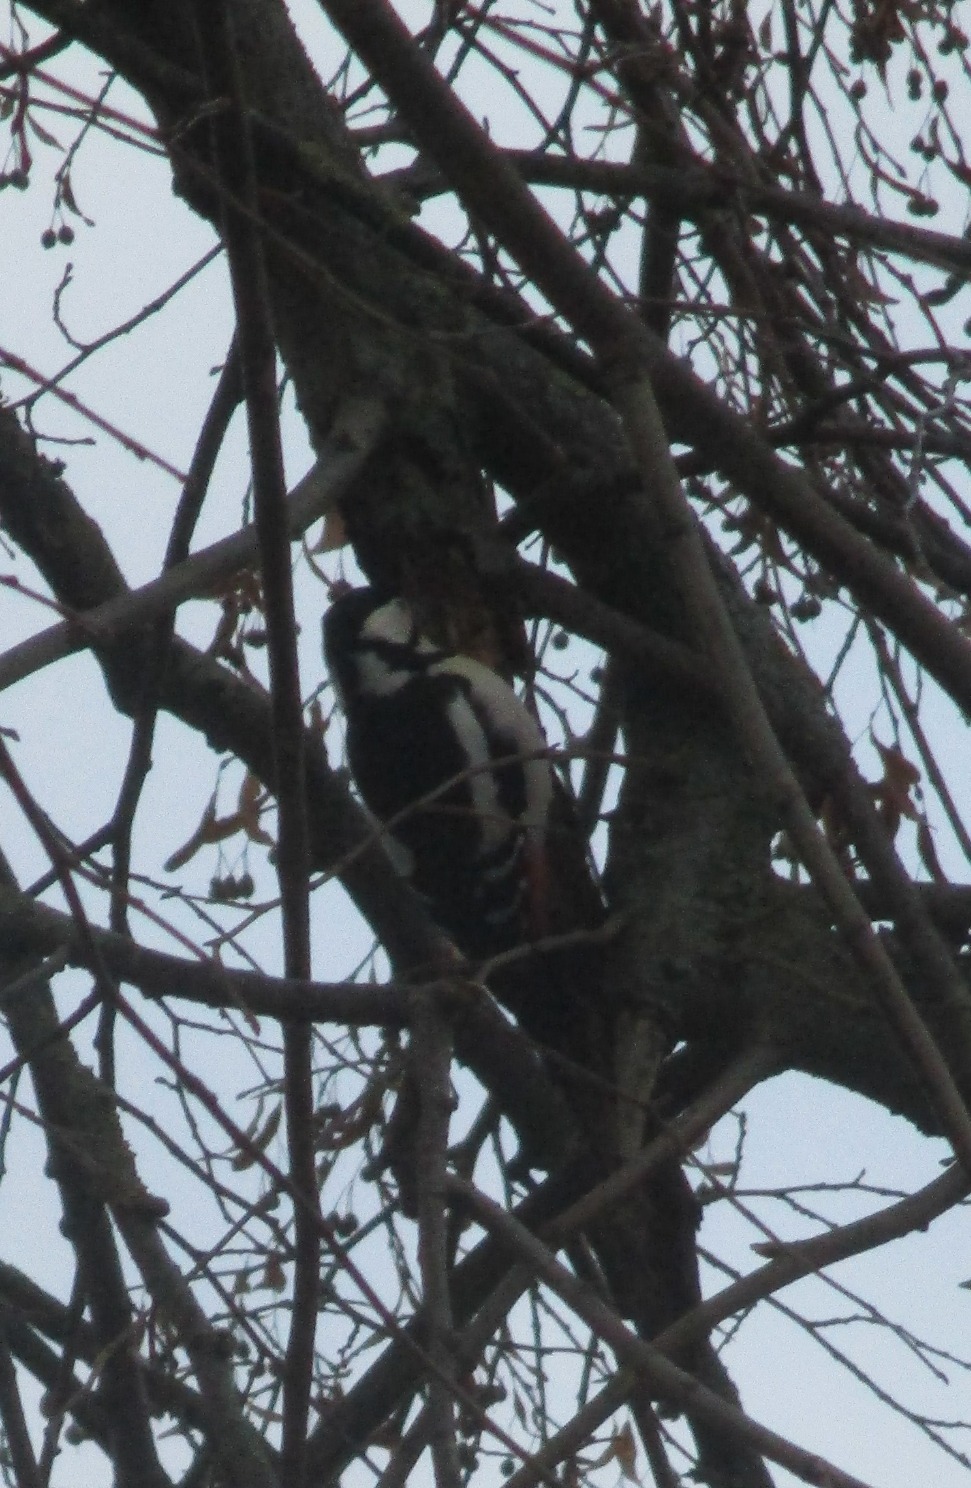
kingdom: Animalia
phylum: Chordata
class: Aves
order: Piciformes
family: Picidae
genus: Dendrocopos
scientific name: Dendrocopos major
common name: Stor flagspætte
